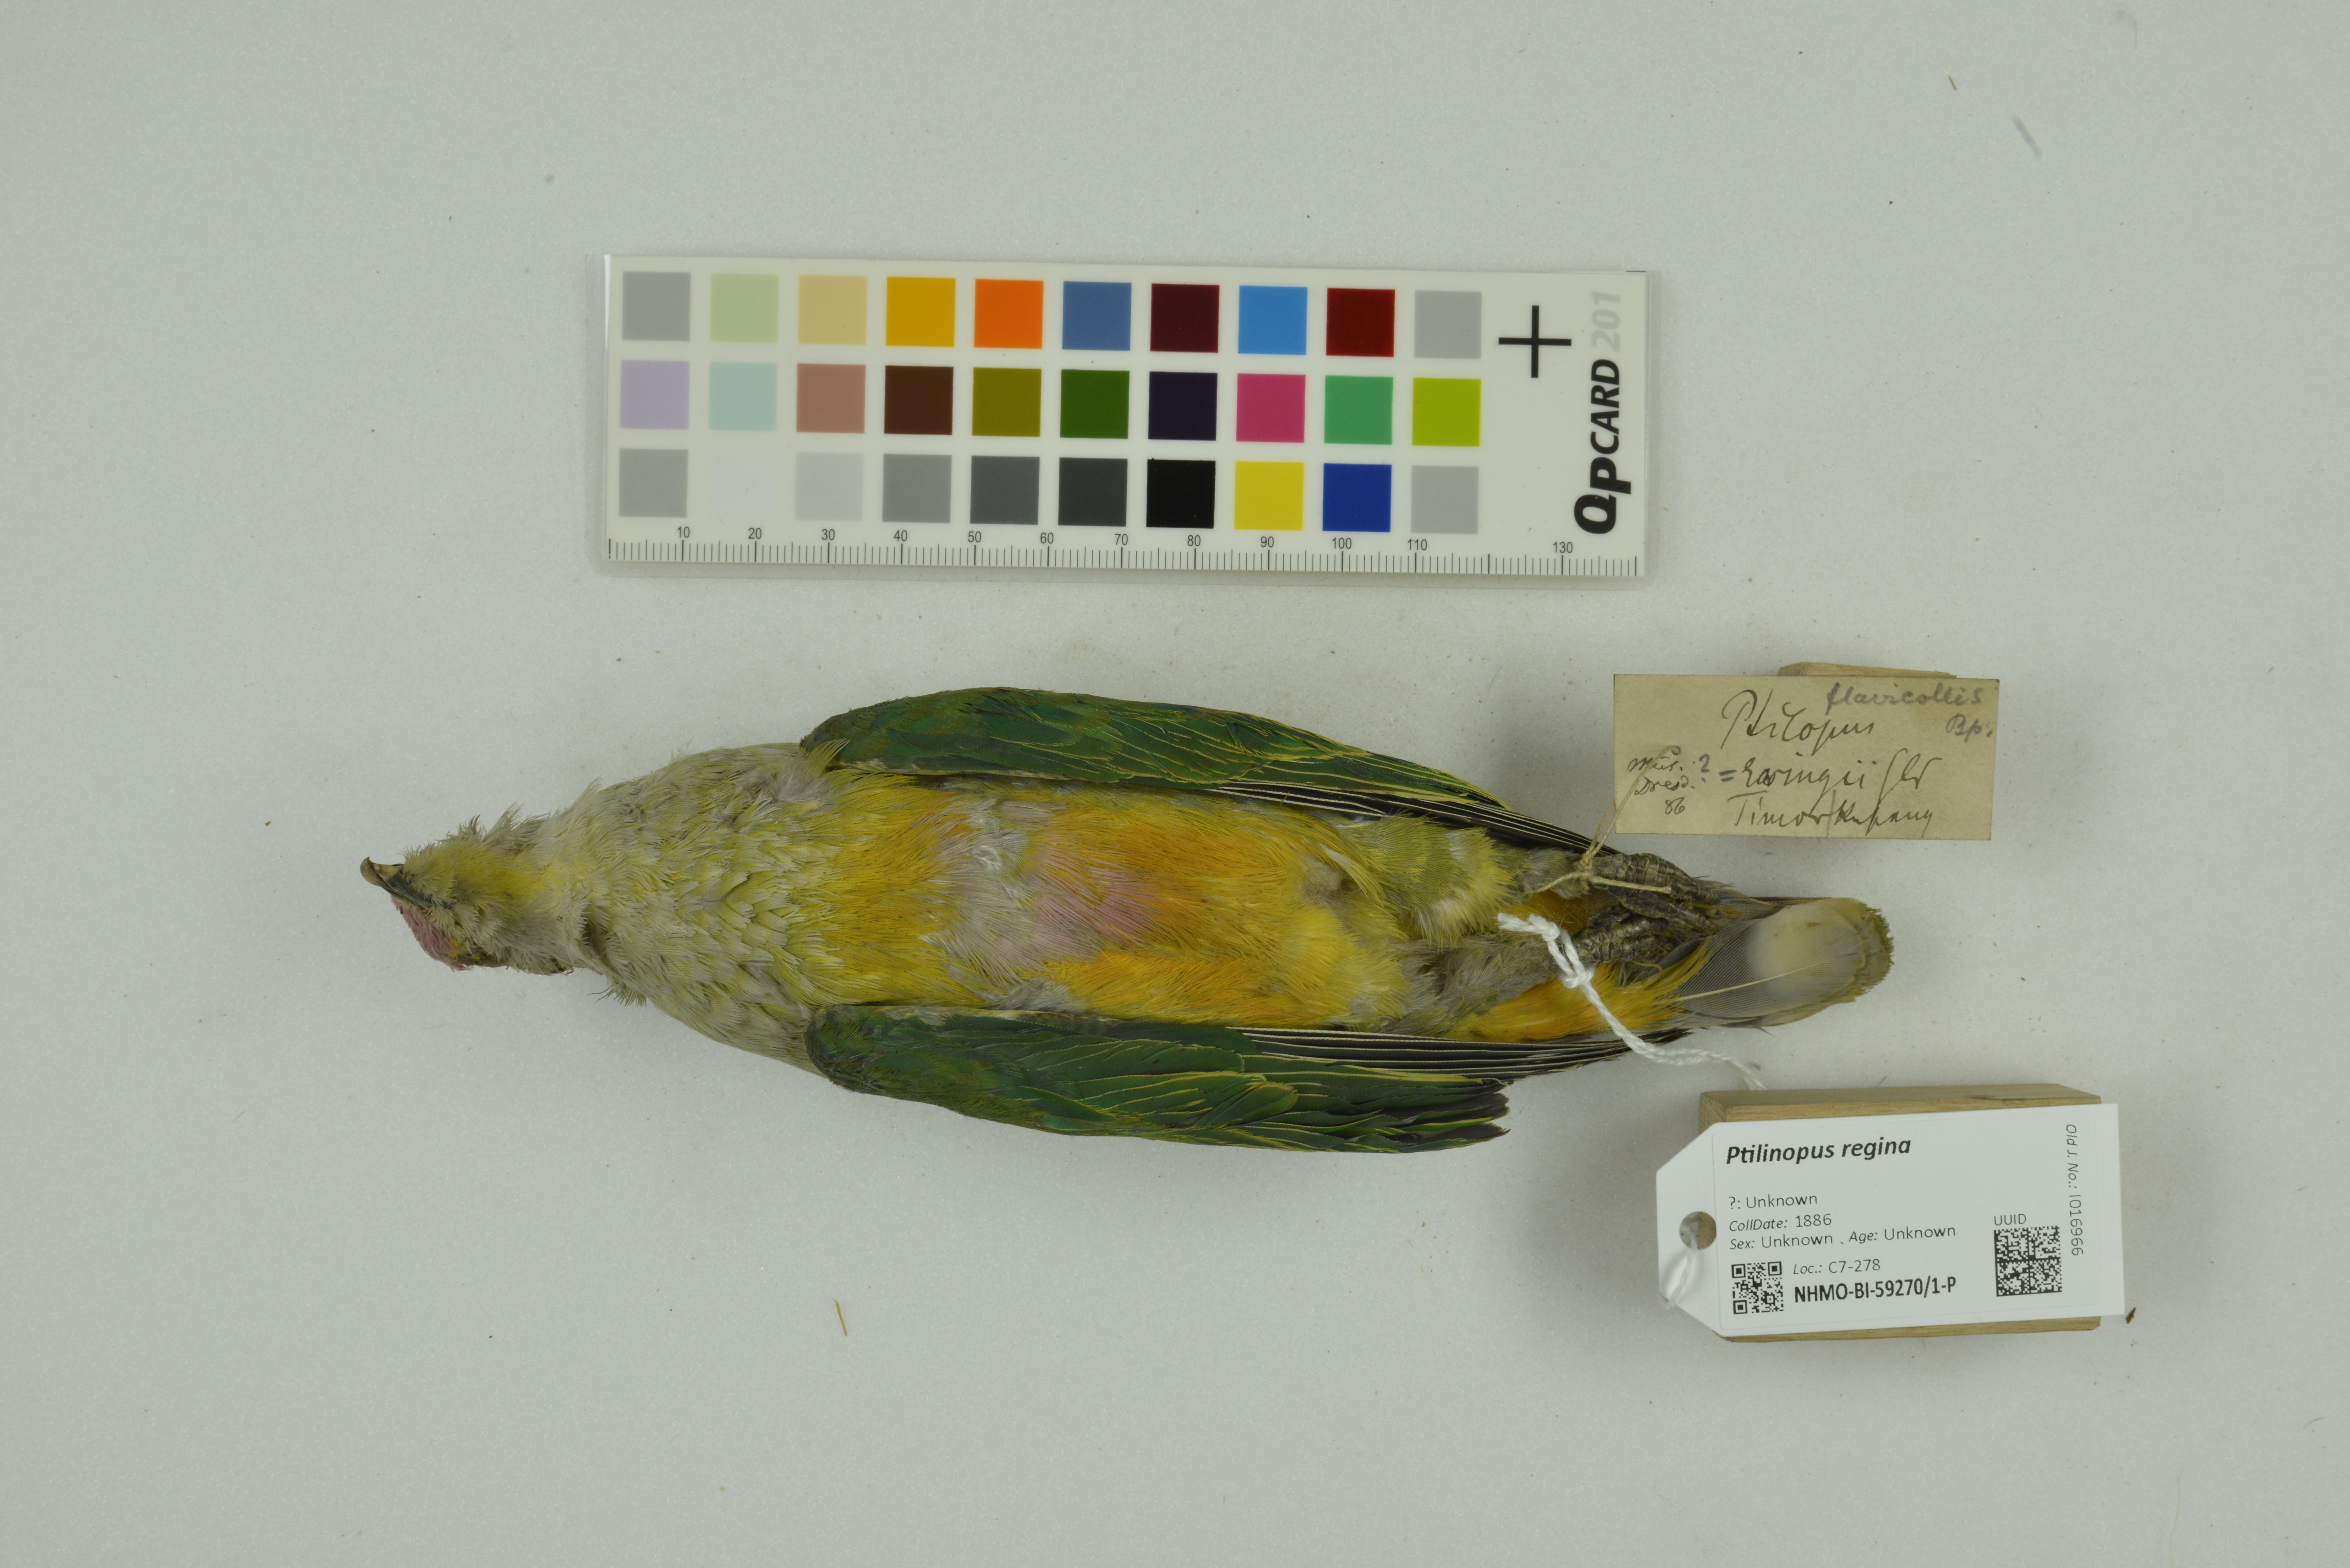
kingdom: Animalia
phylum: Chordata
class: Aves
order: Columbiformes
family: Columbidae
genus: Ptilinopus
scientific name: Ptilinopus regina
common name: Rose-crowned fruit dove
